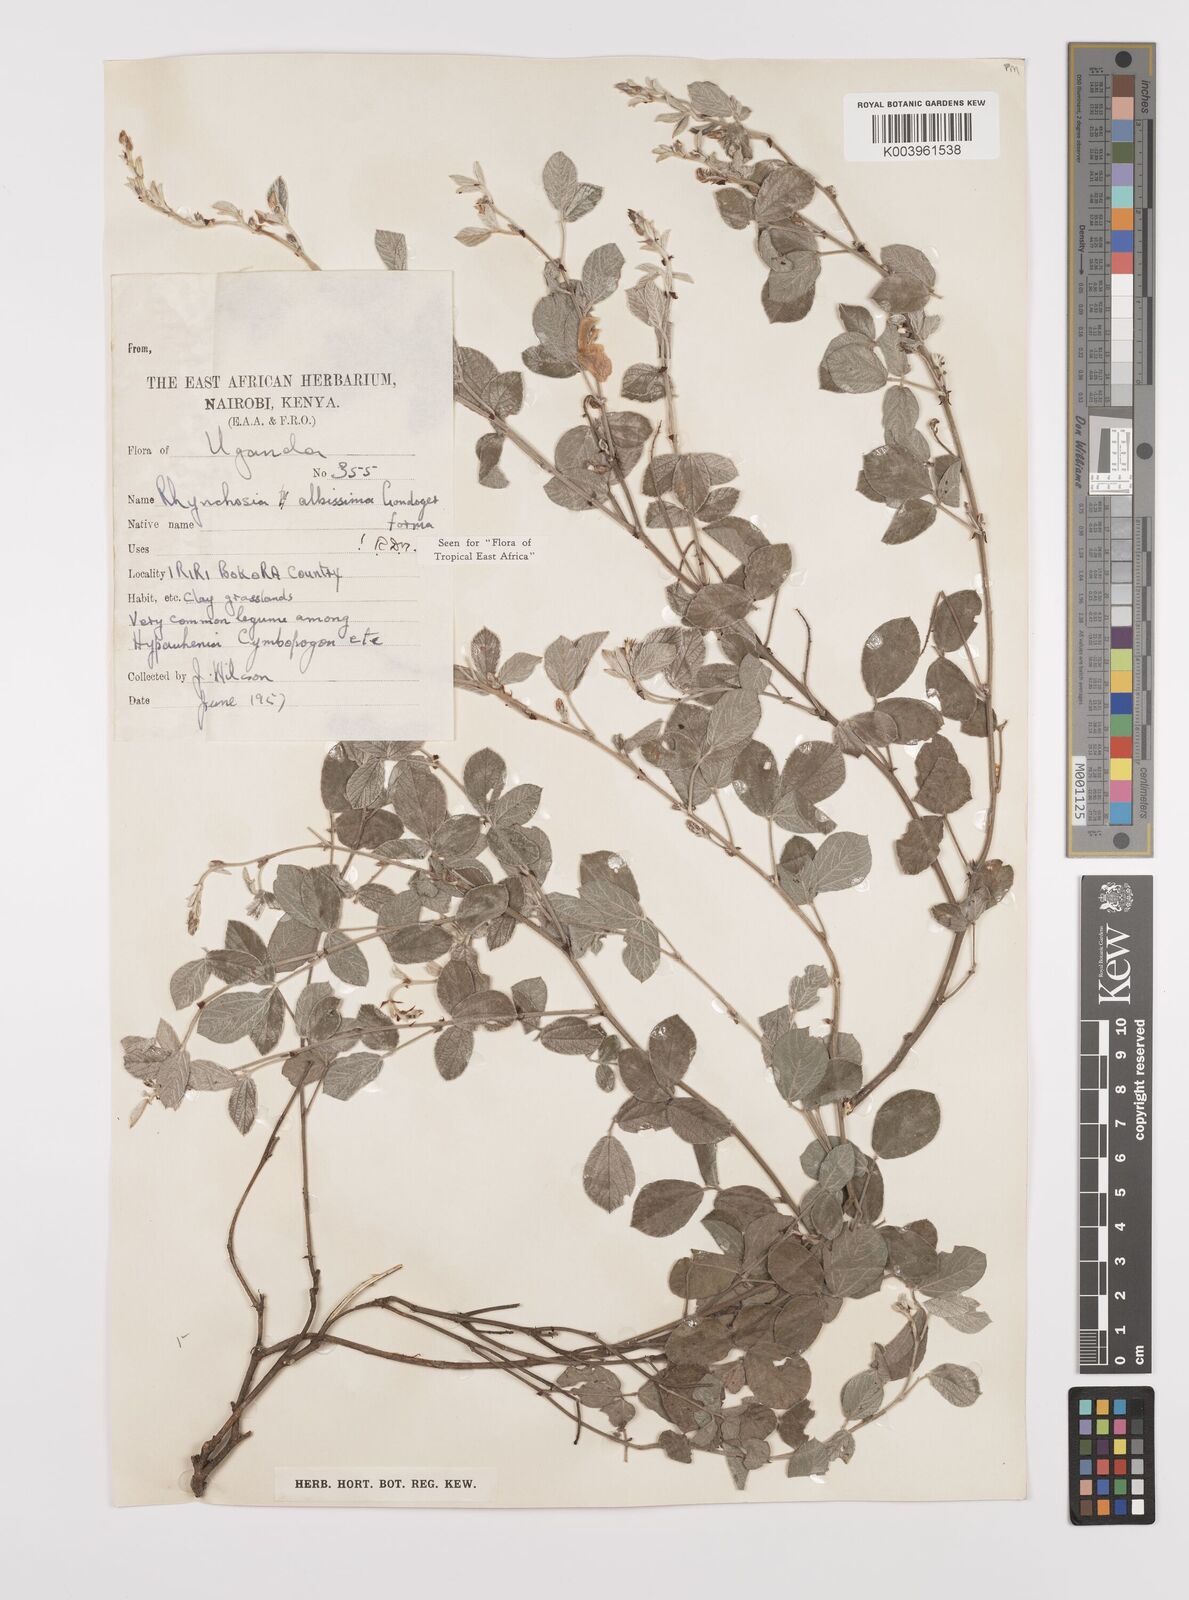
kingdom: Plantae
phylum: Tracheophyta
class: Magnoliopsida
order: Fabales
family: Fabaceae
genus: Rhynchosia
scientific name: Rhynchosia albissima
